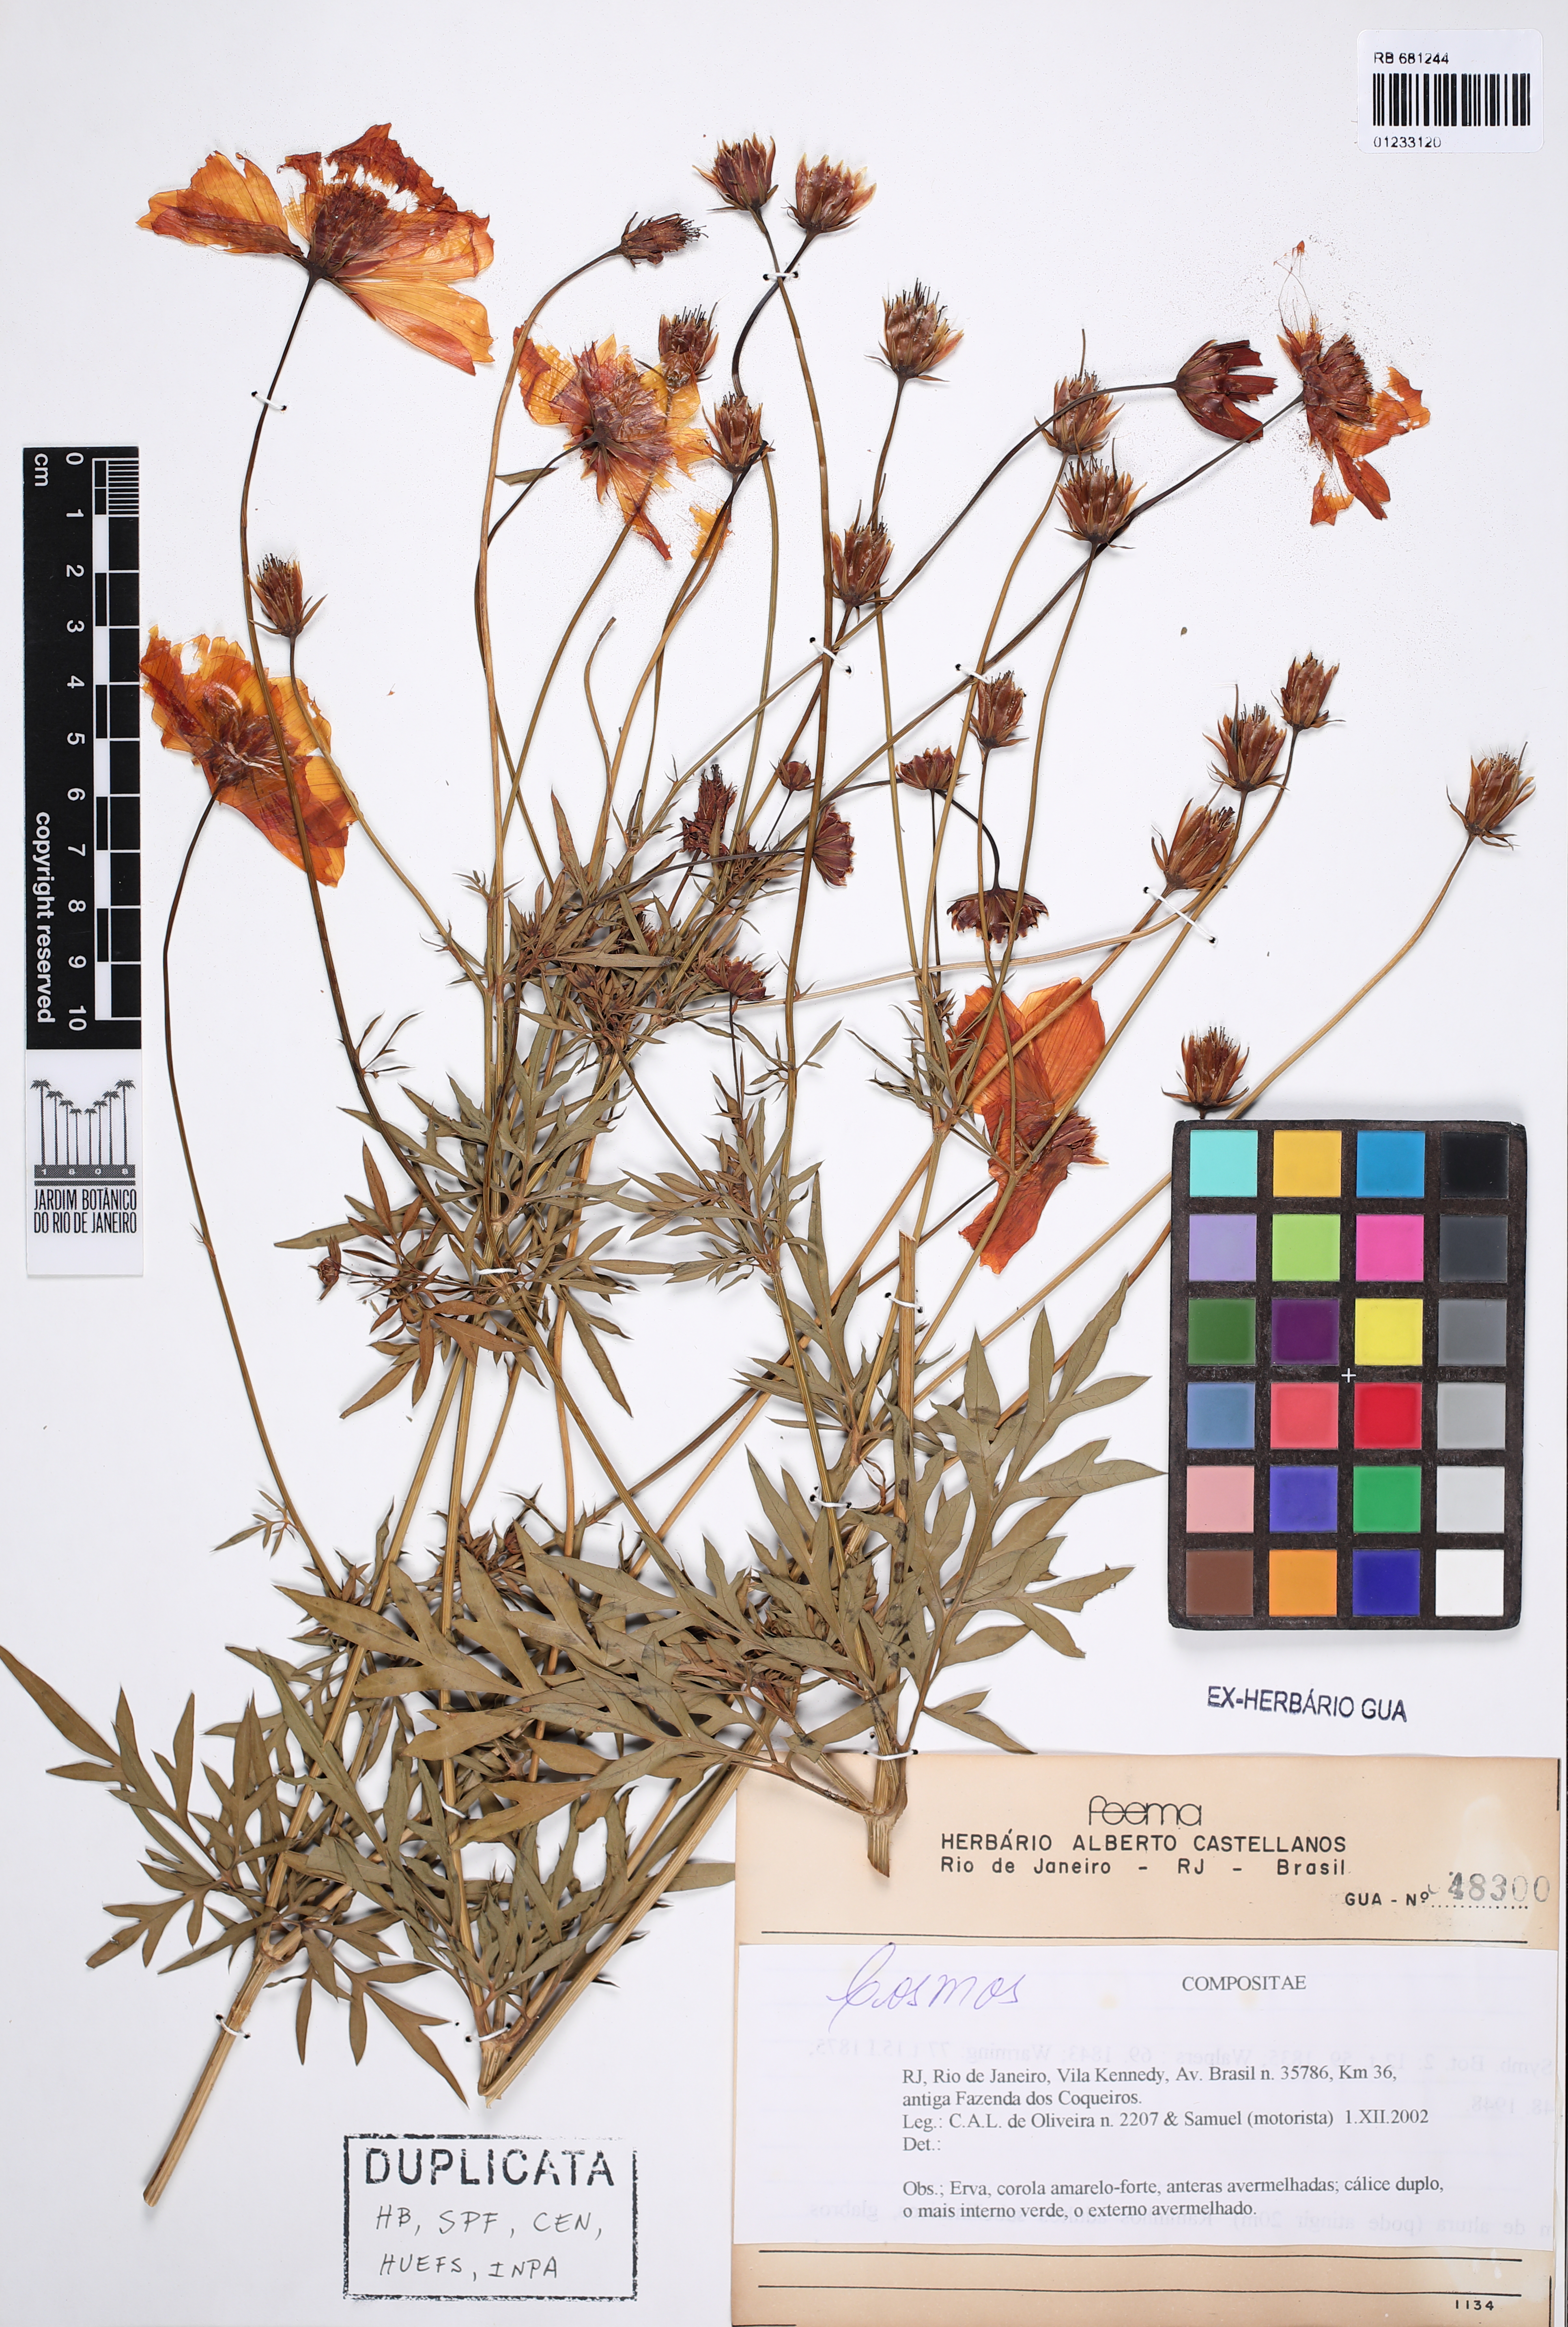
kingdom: Plantae
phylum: Tracheophyta
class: Magnoliopsida
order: Asterales
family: Asteraceae
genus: Cosmos
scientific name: Cosmos
